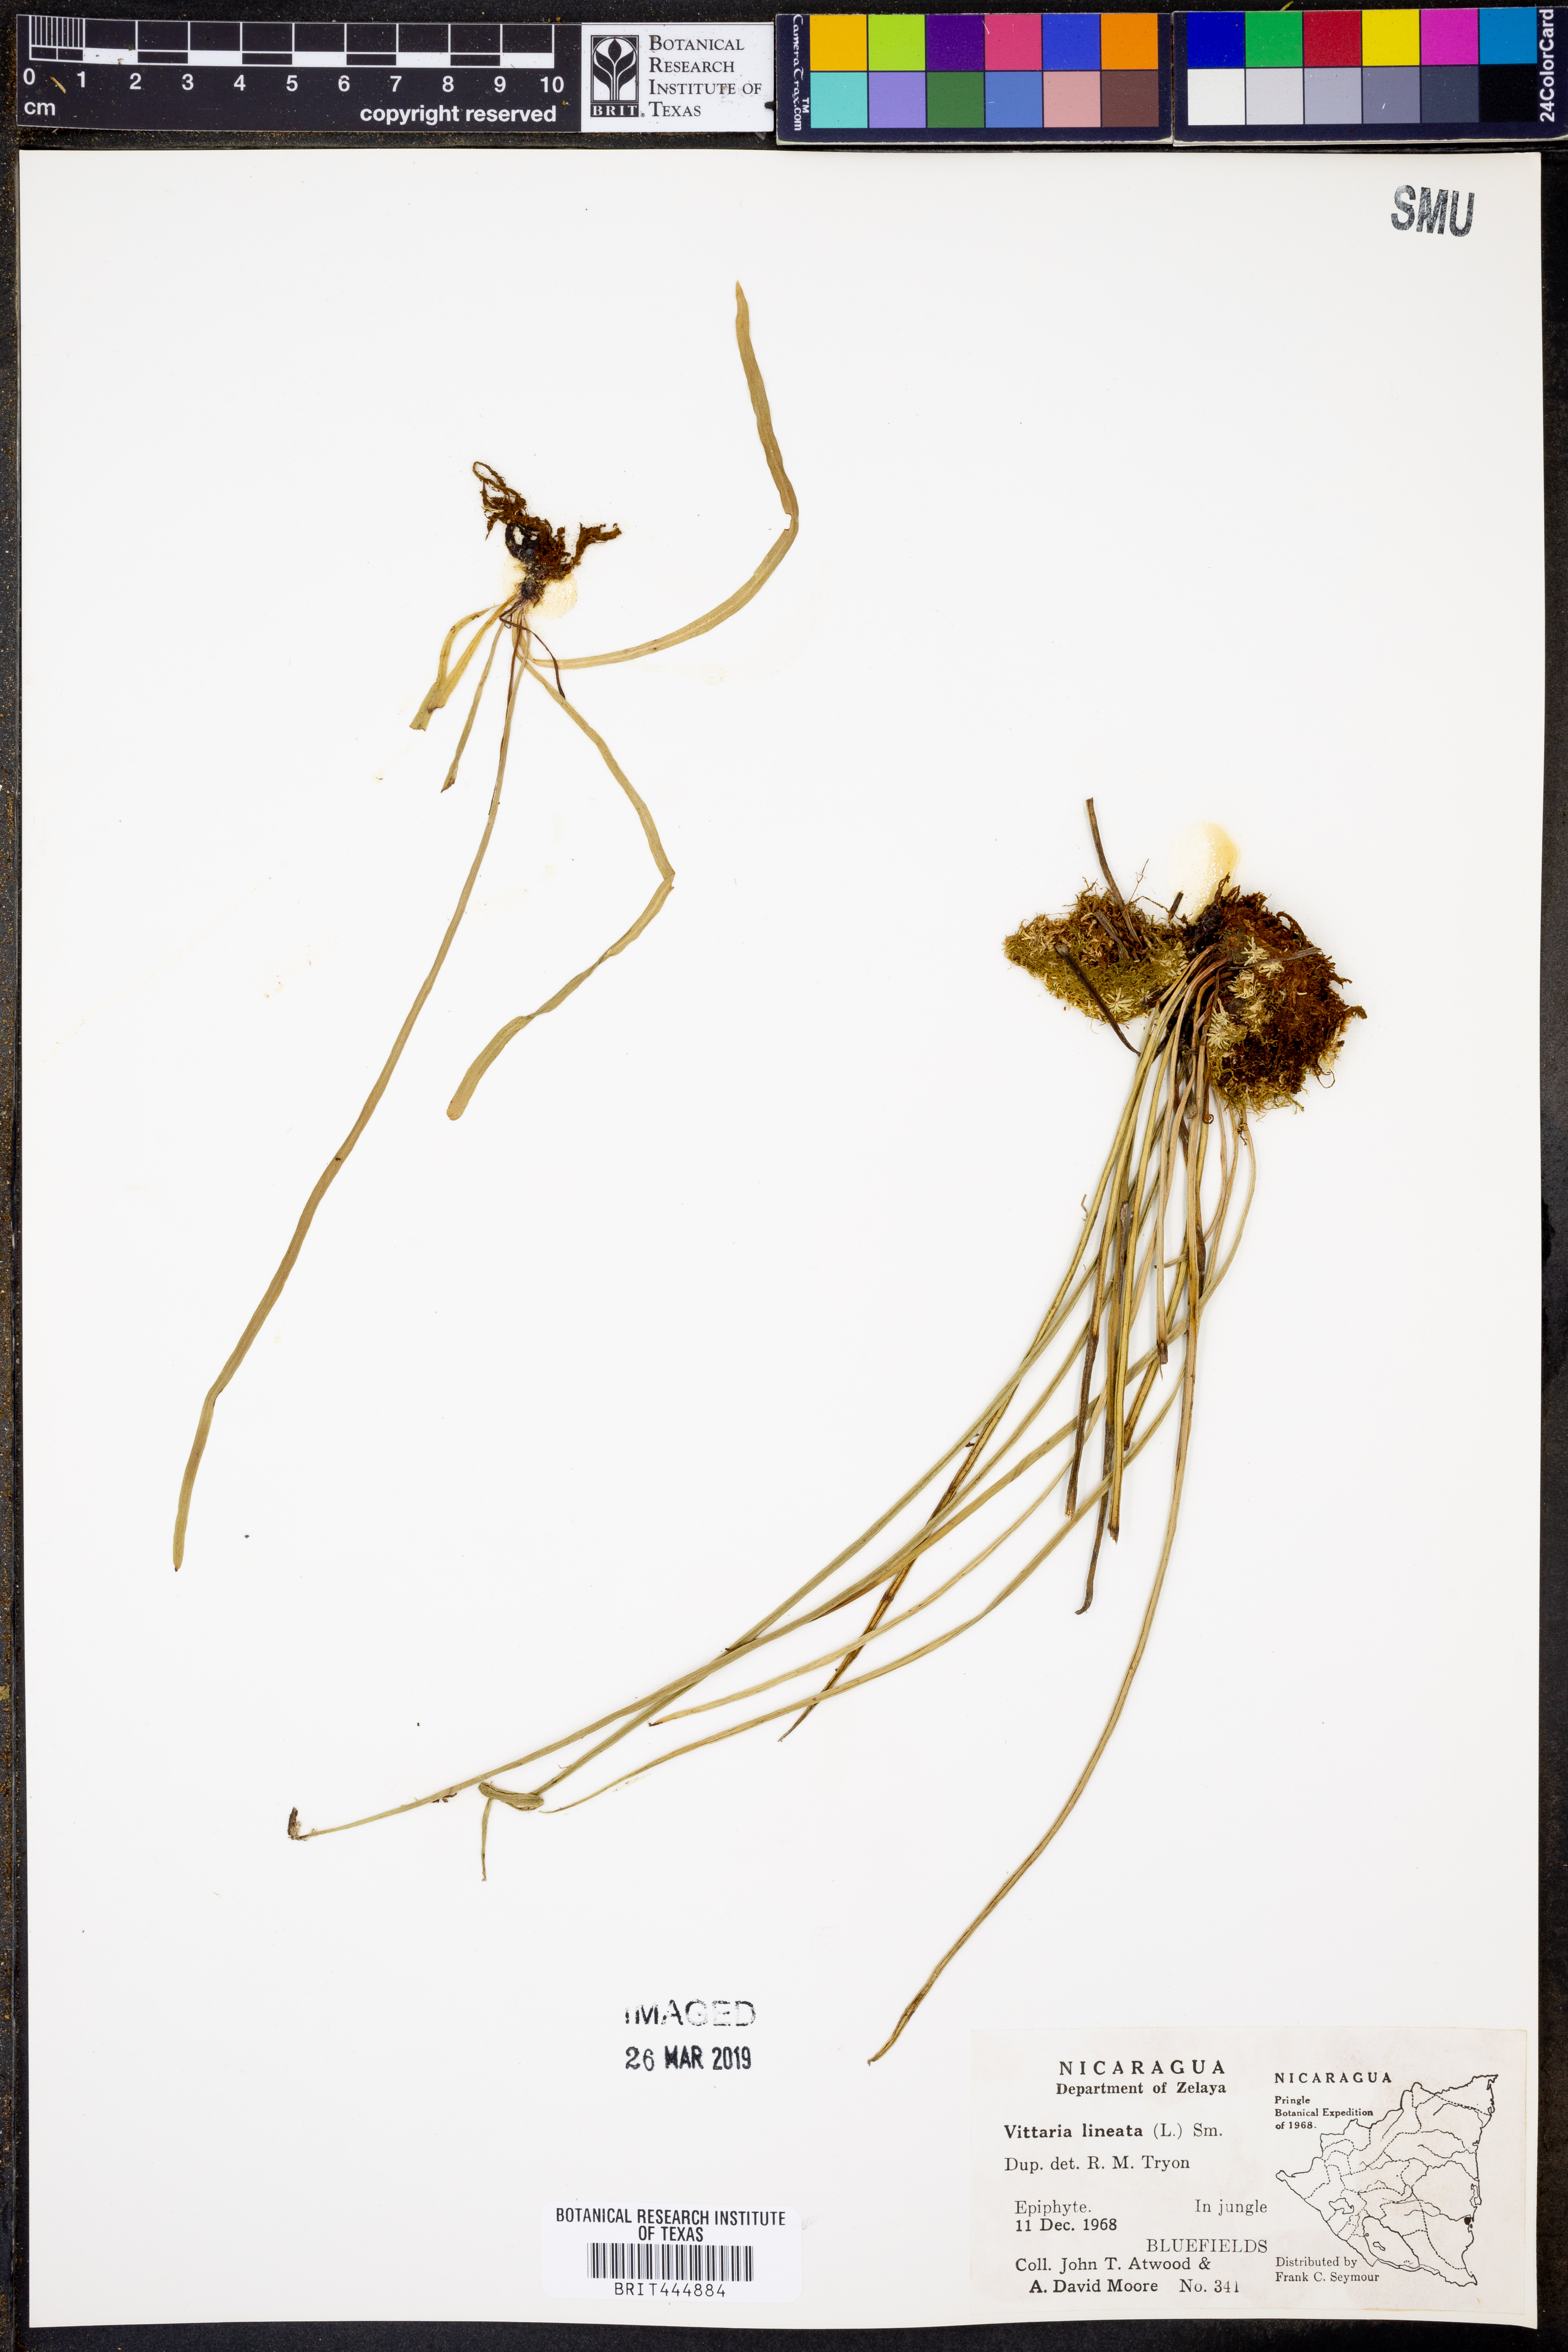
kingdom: Plantae
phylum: Tracheophyta
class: Polypodiopsida
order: Polypodiales
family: Pteridaceae
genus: Vittaria
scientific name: Vittaria lineata
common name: Shoestring fern
